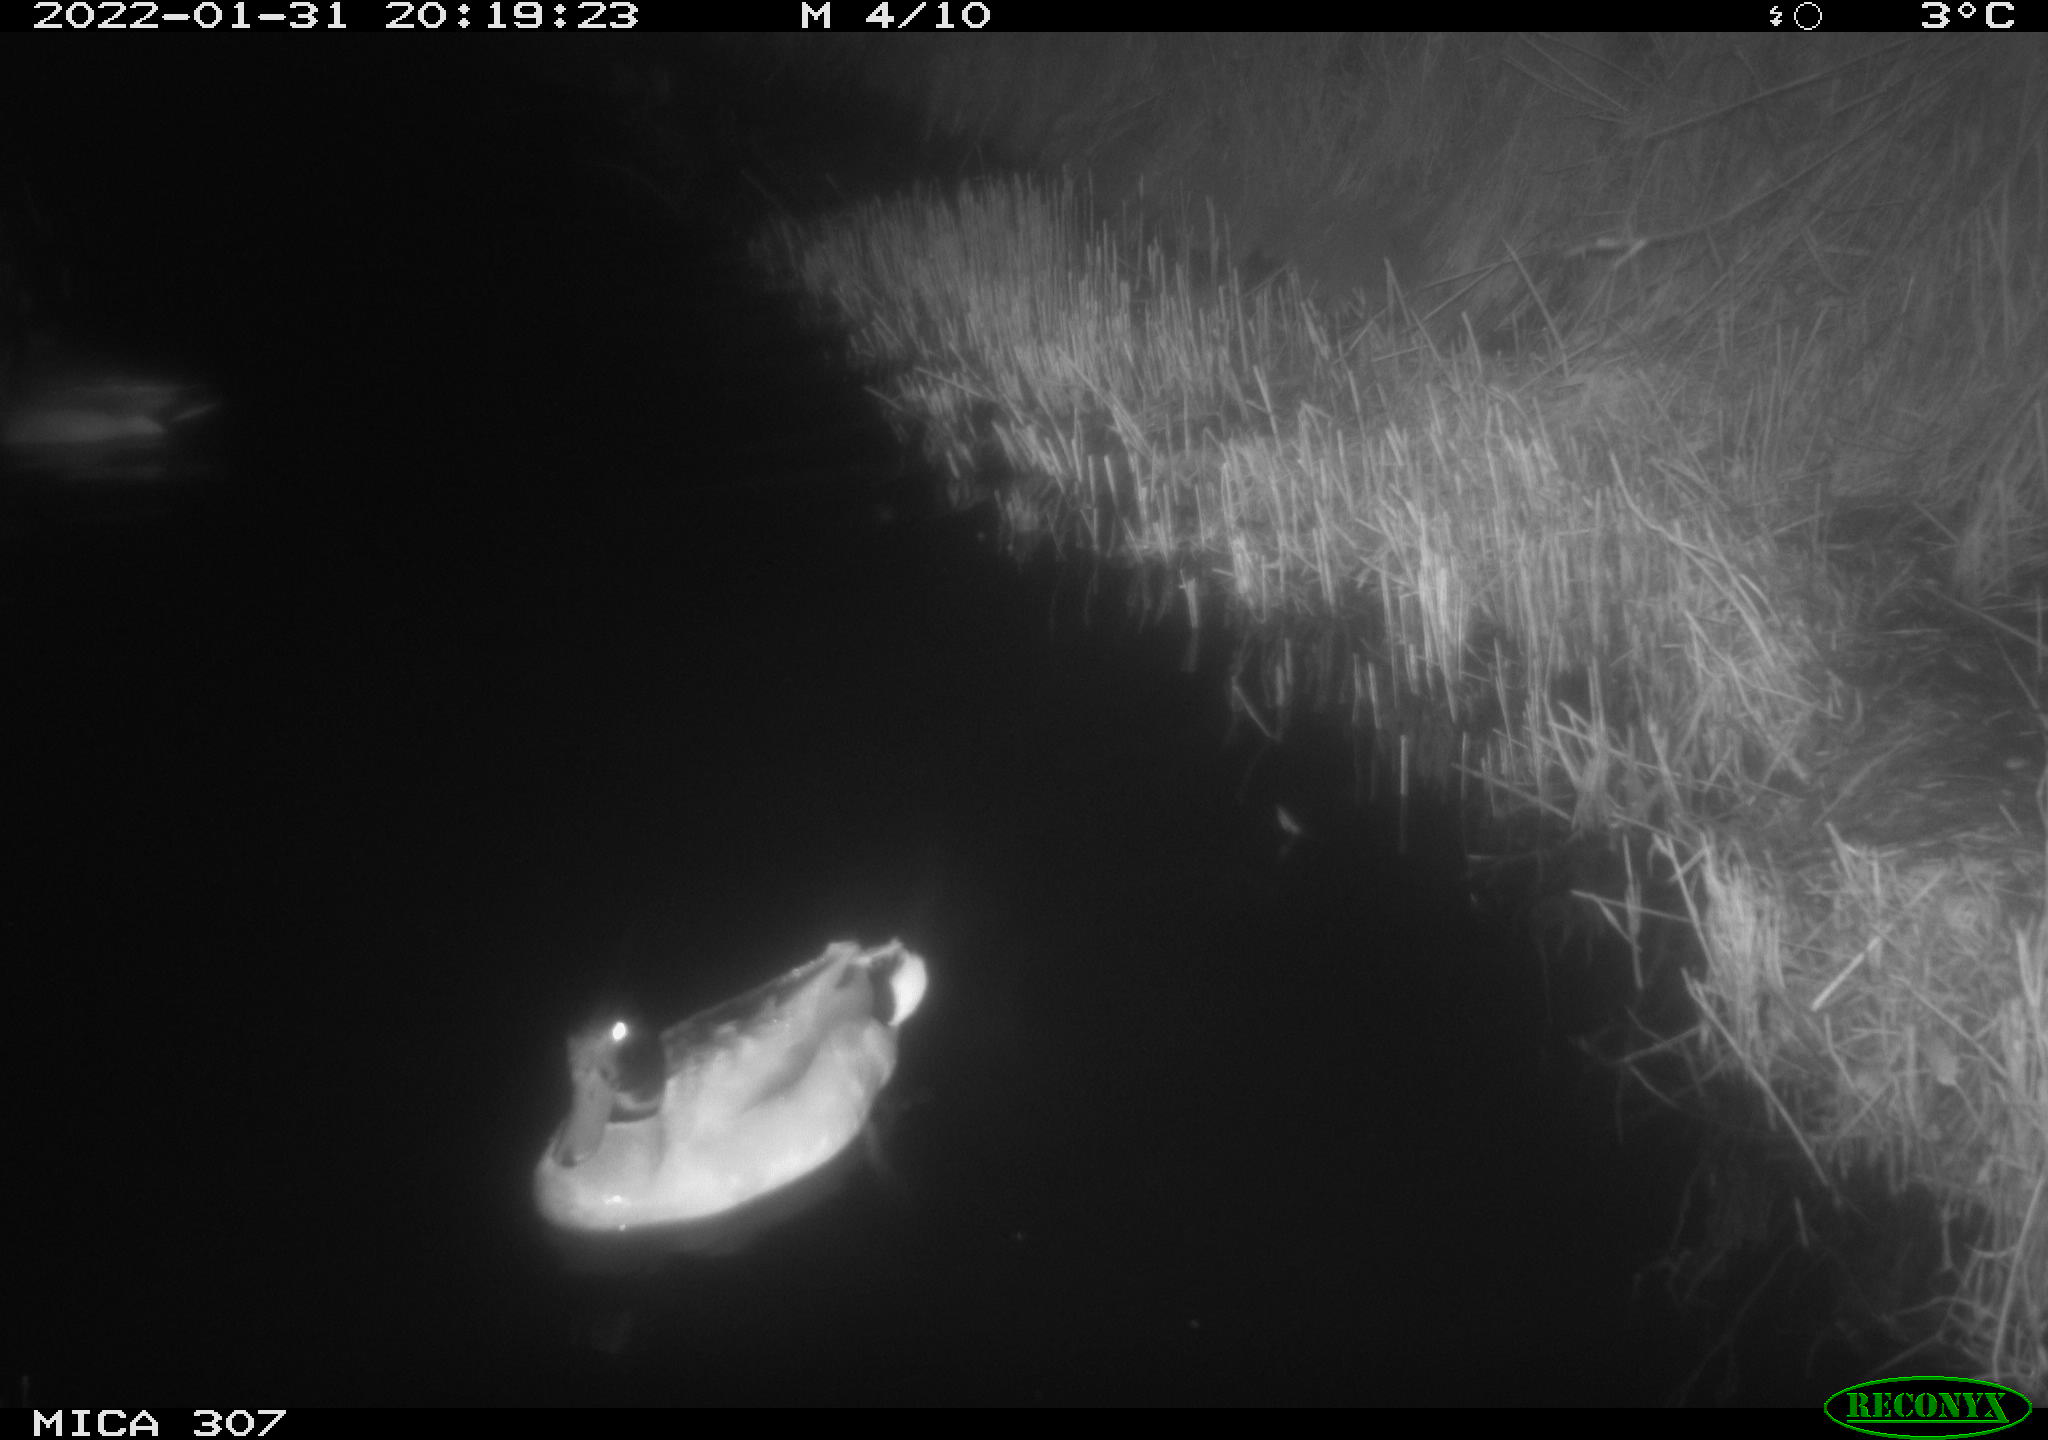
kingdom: Animalia
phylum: Chordata
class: Aves
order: Anseriformes
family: Anatidae
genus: Anas
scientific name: Anas
